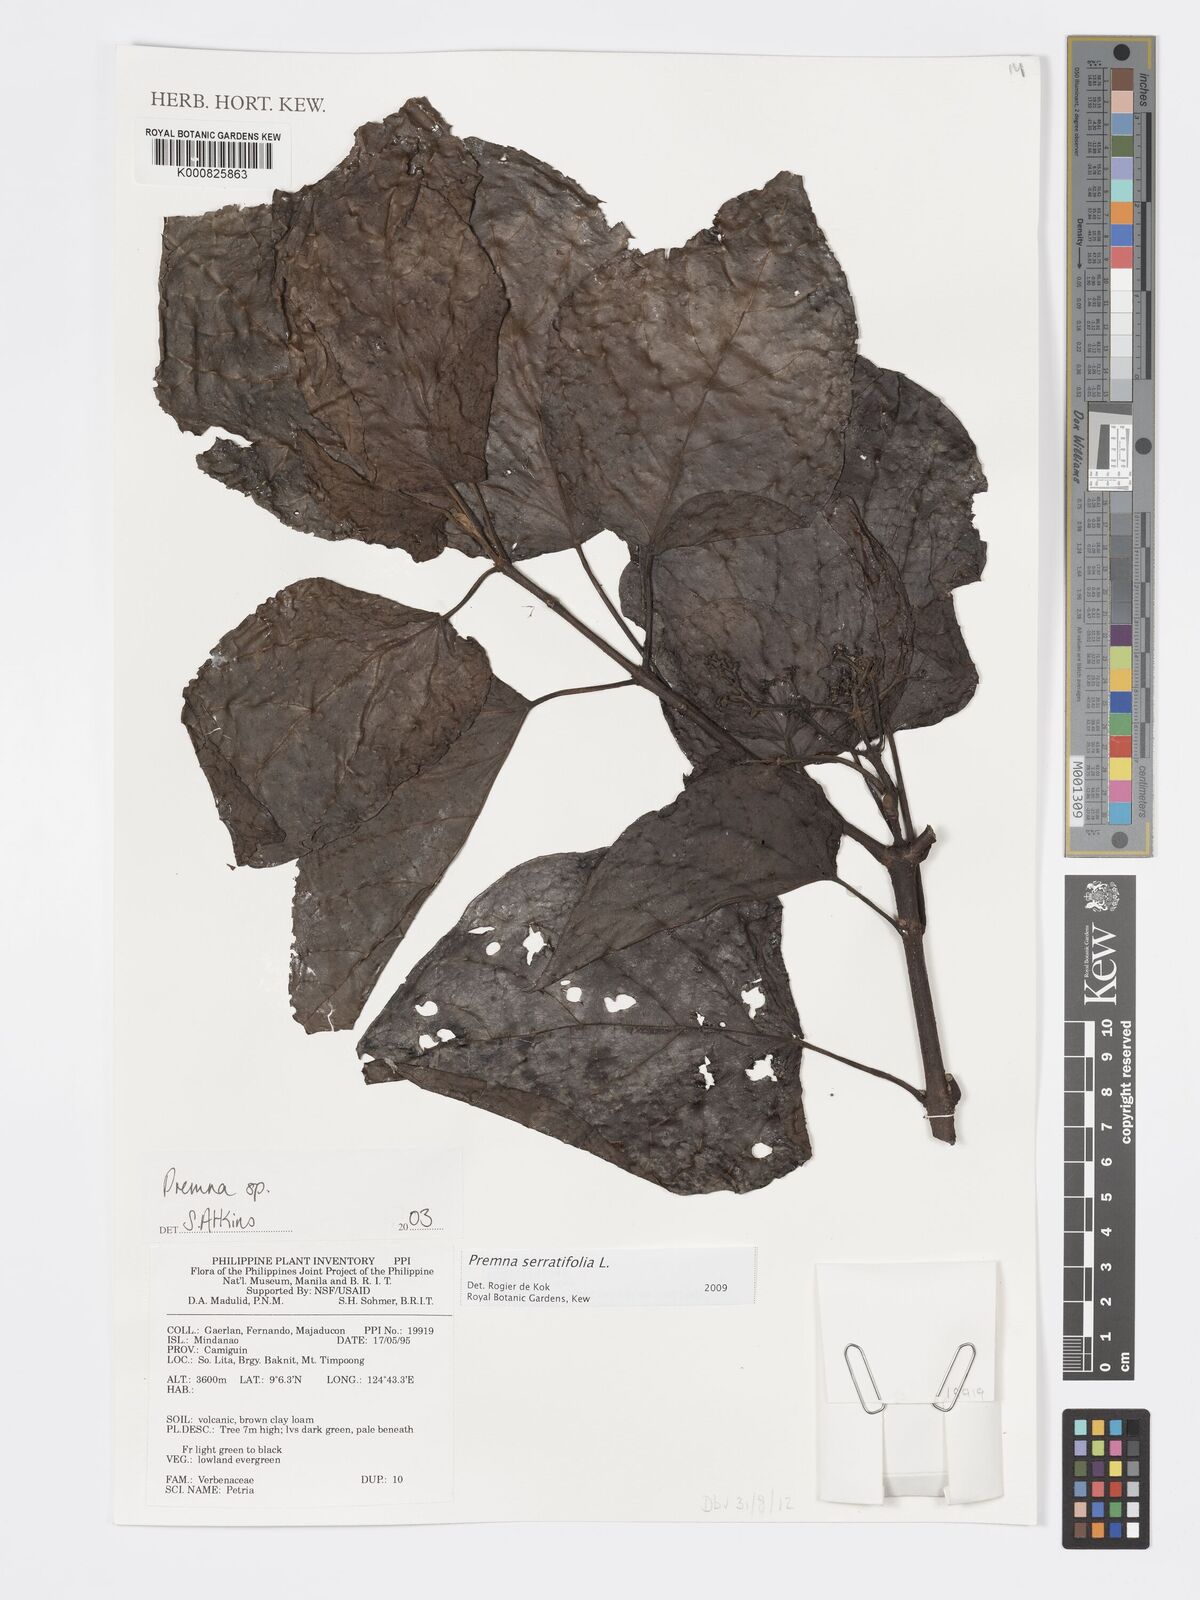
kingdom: Plantae
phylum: Tracheophyta
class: Magnoliopsida
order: Lamiales
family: Lamiaceae
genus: Premna
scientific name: Premna serratifolia
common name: Bastard guelder
